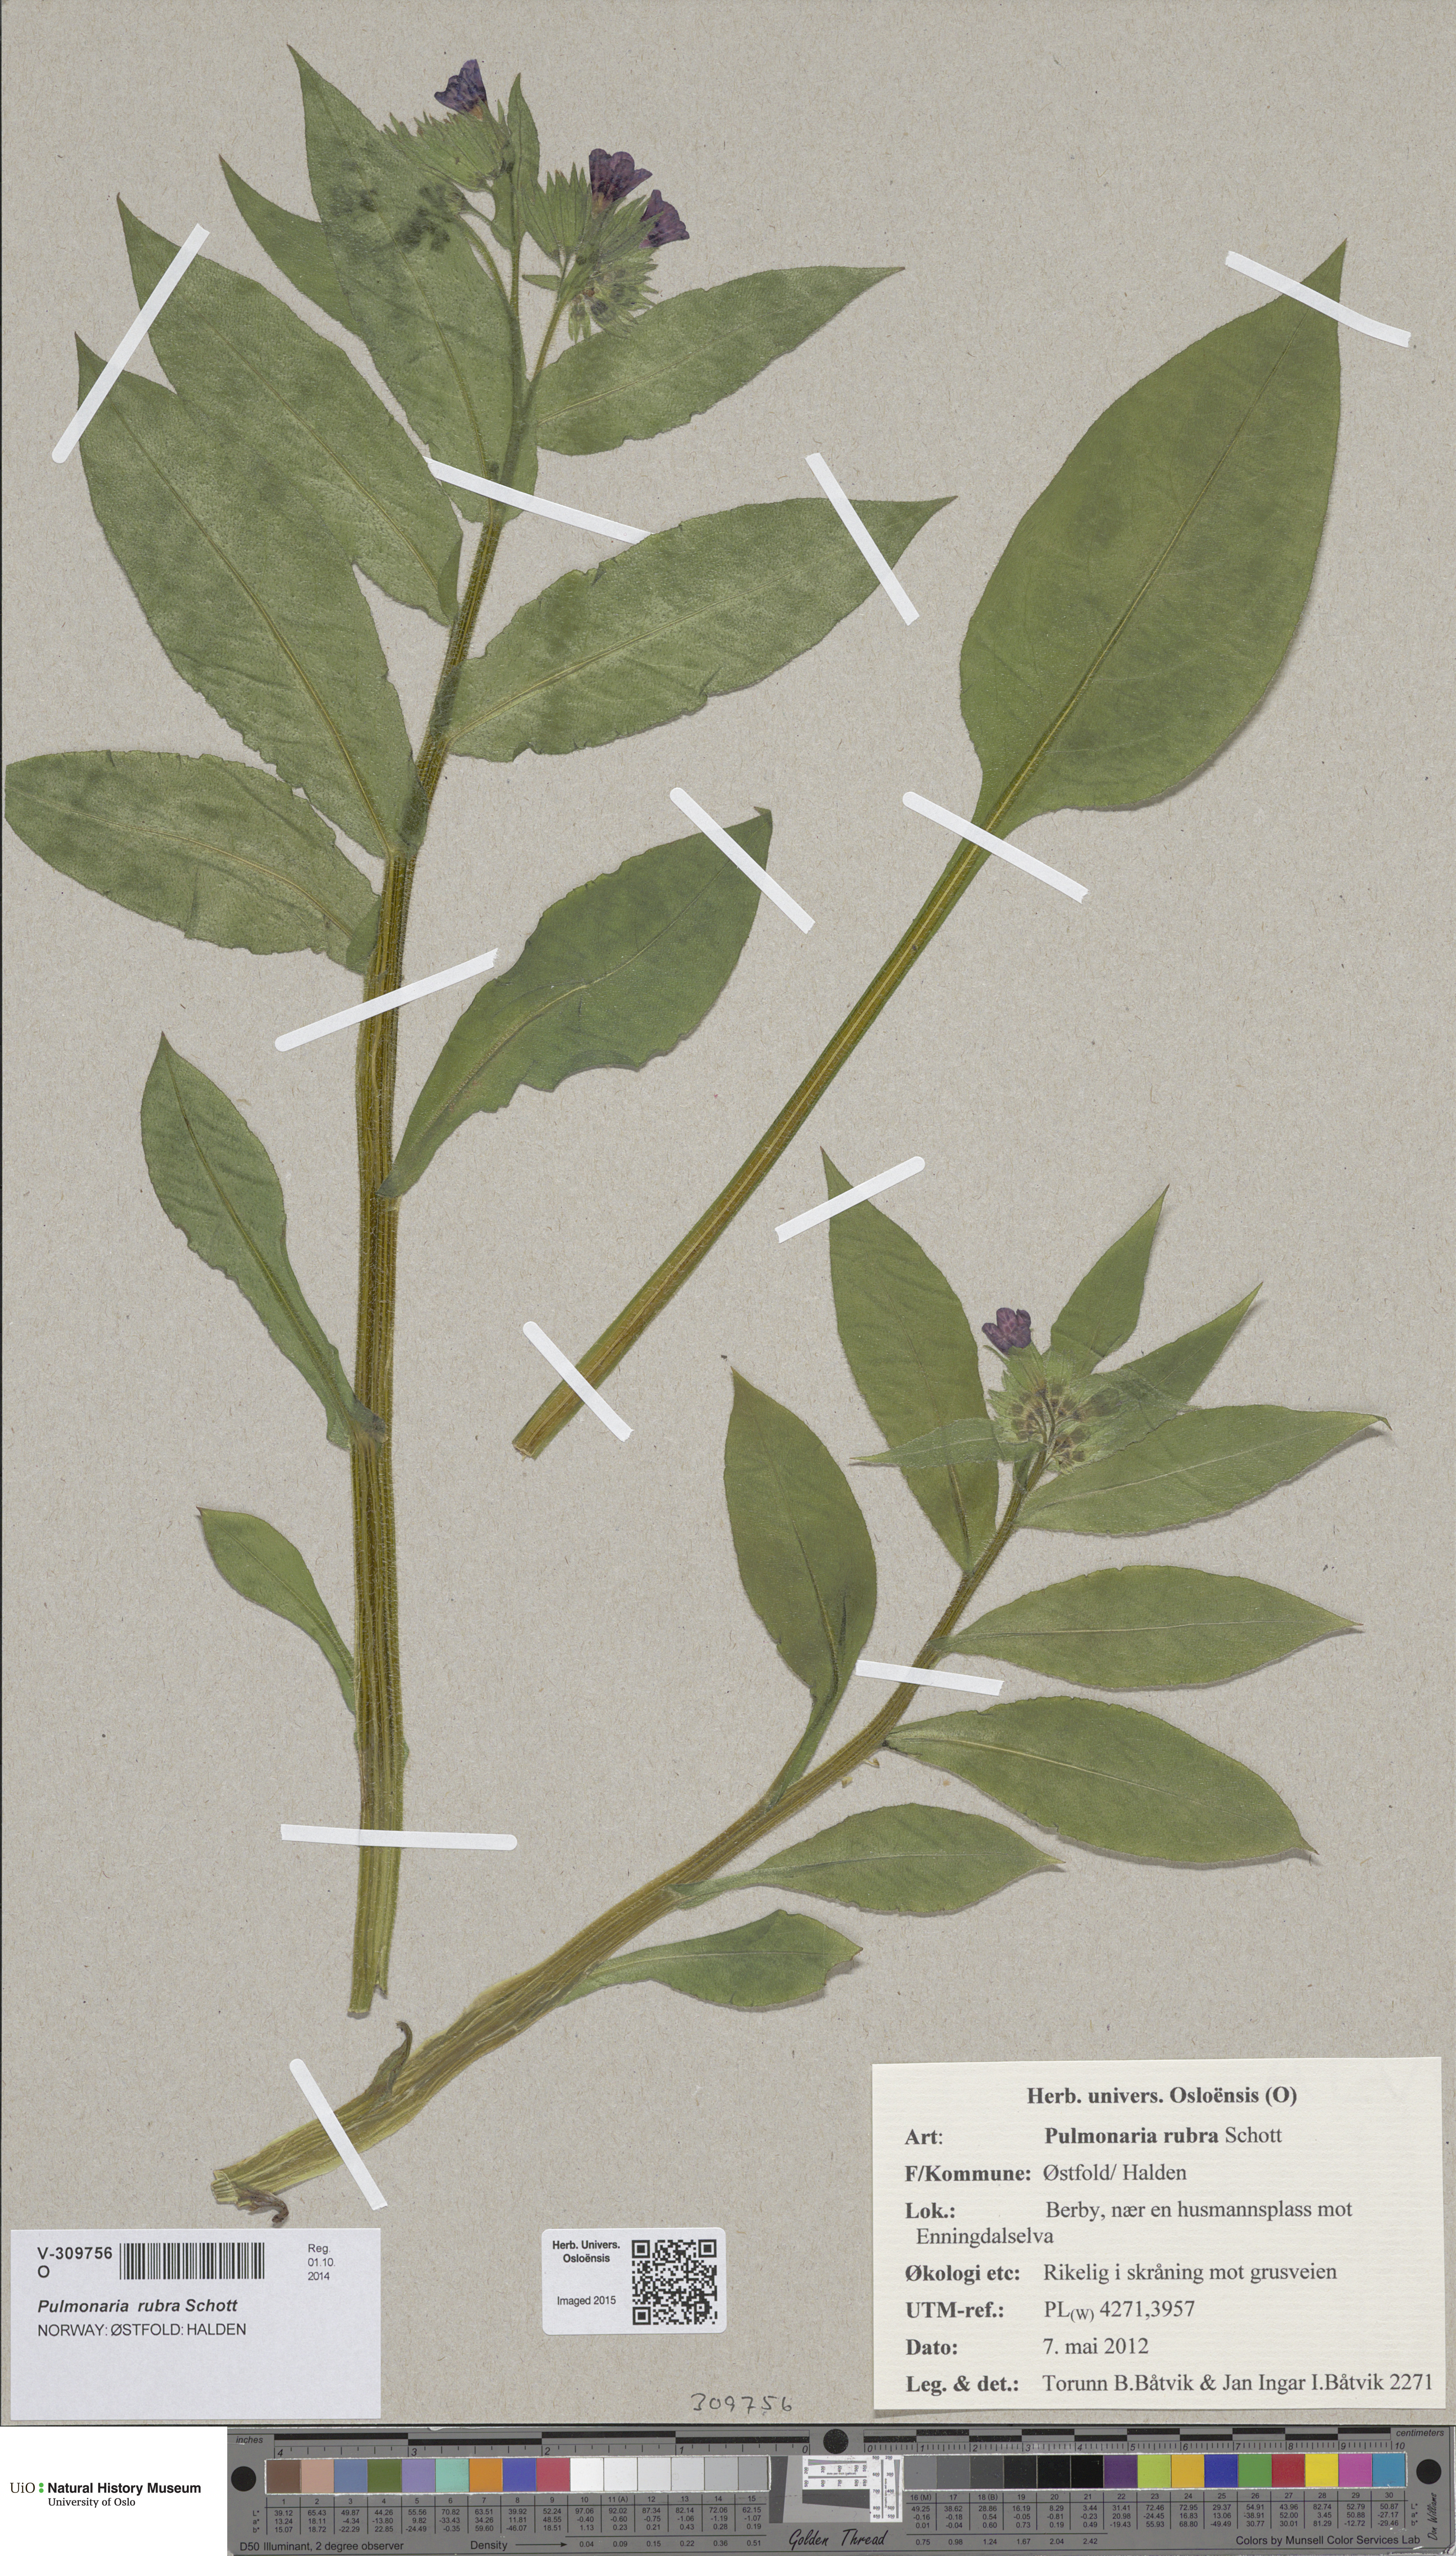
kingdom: Plantae
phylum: Tracheophyta
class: Magnoliopsida
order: Boraginales
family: Boraginaceae
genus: Pulmonaria
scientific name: Pulmonaria rubra
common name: Red lungwort
